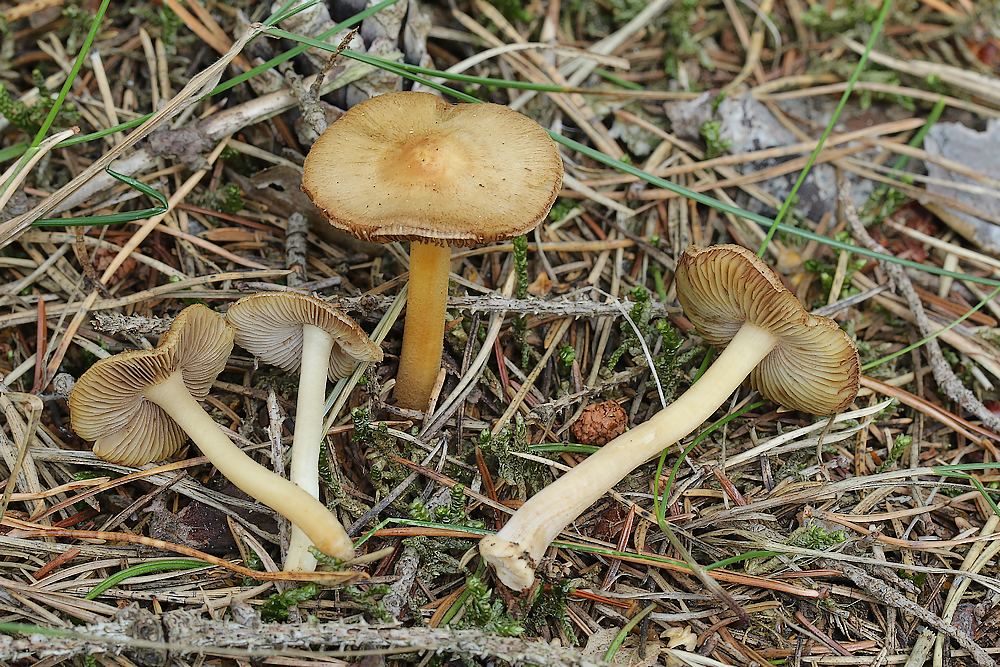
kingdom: Fungi
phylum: Basidiomycota
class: Agaricomycetes
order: Agaricales
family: Inocybaceae
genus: Inocybe
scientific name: Inocybe mixtilis
